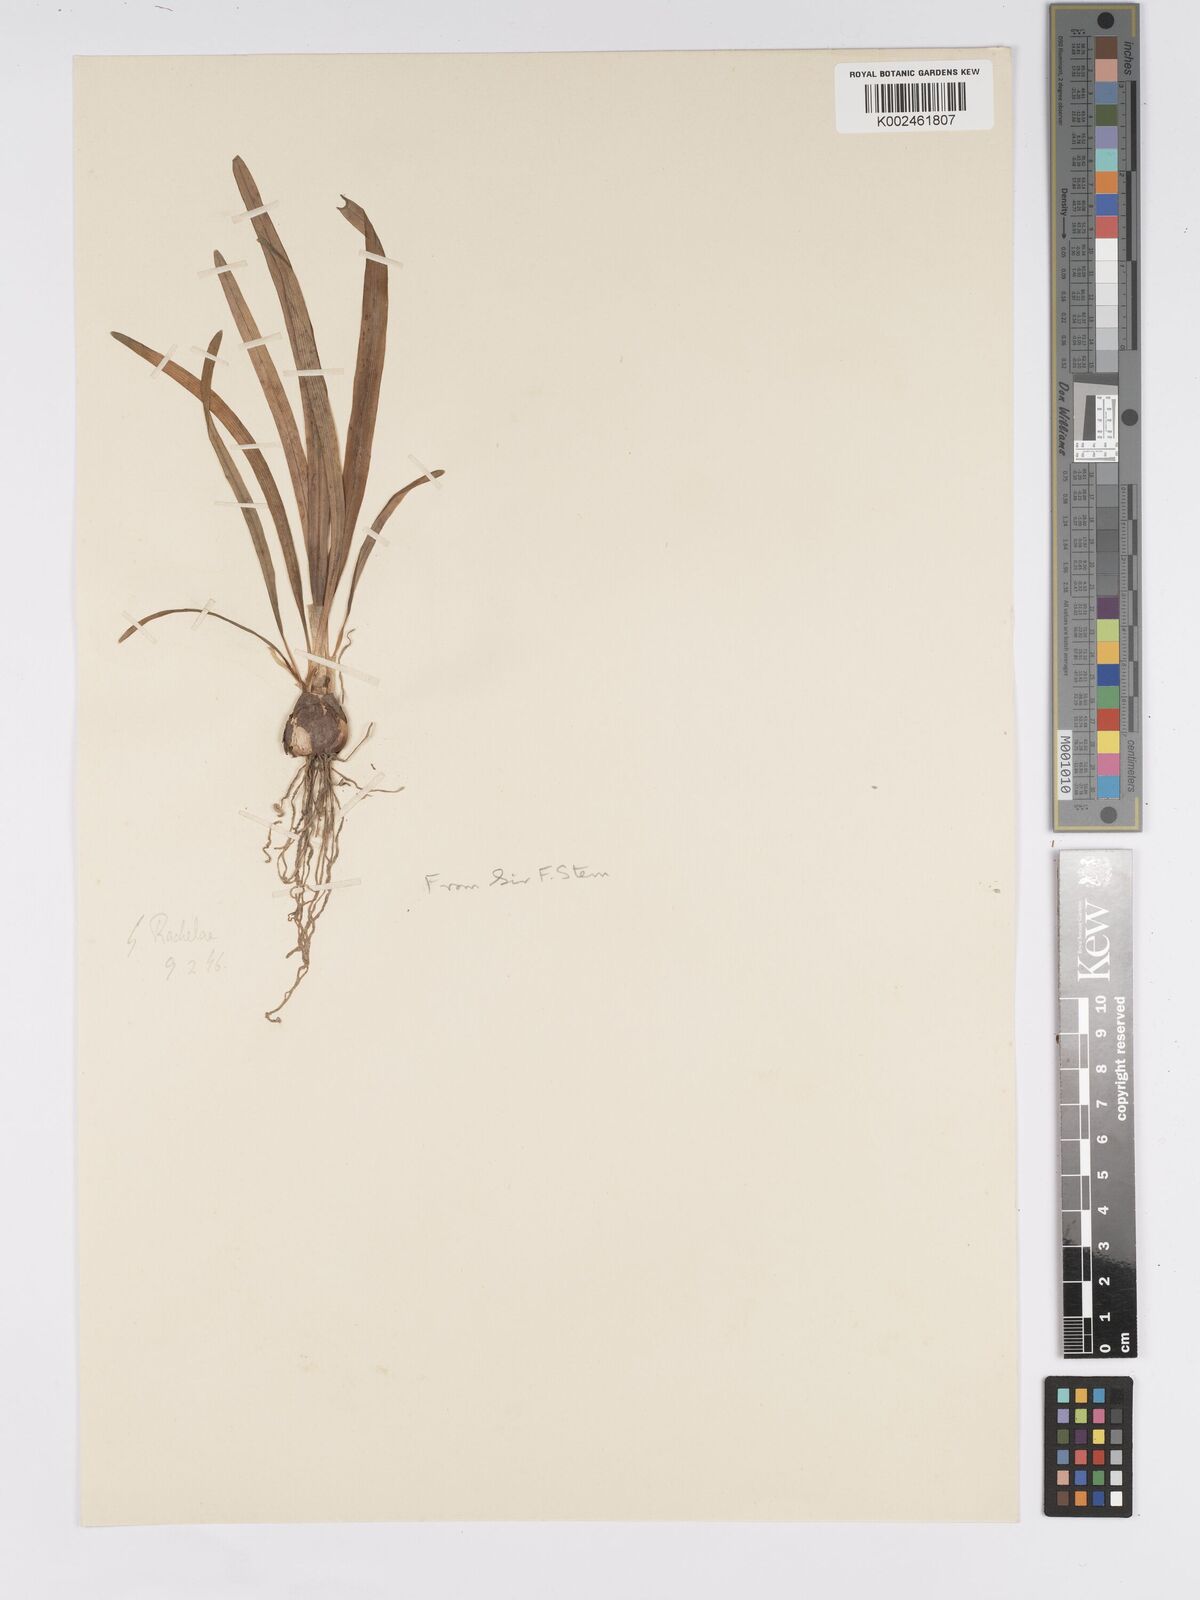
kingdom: Plantae
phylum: Tracheophyta
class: Liliopsida
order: Asparagales
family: Amaryllidaceae
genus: Galanthus
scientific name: Galanthus
